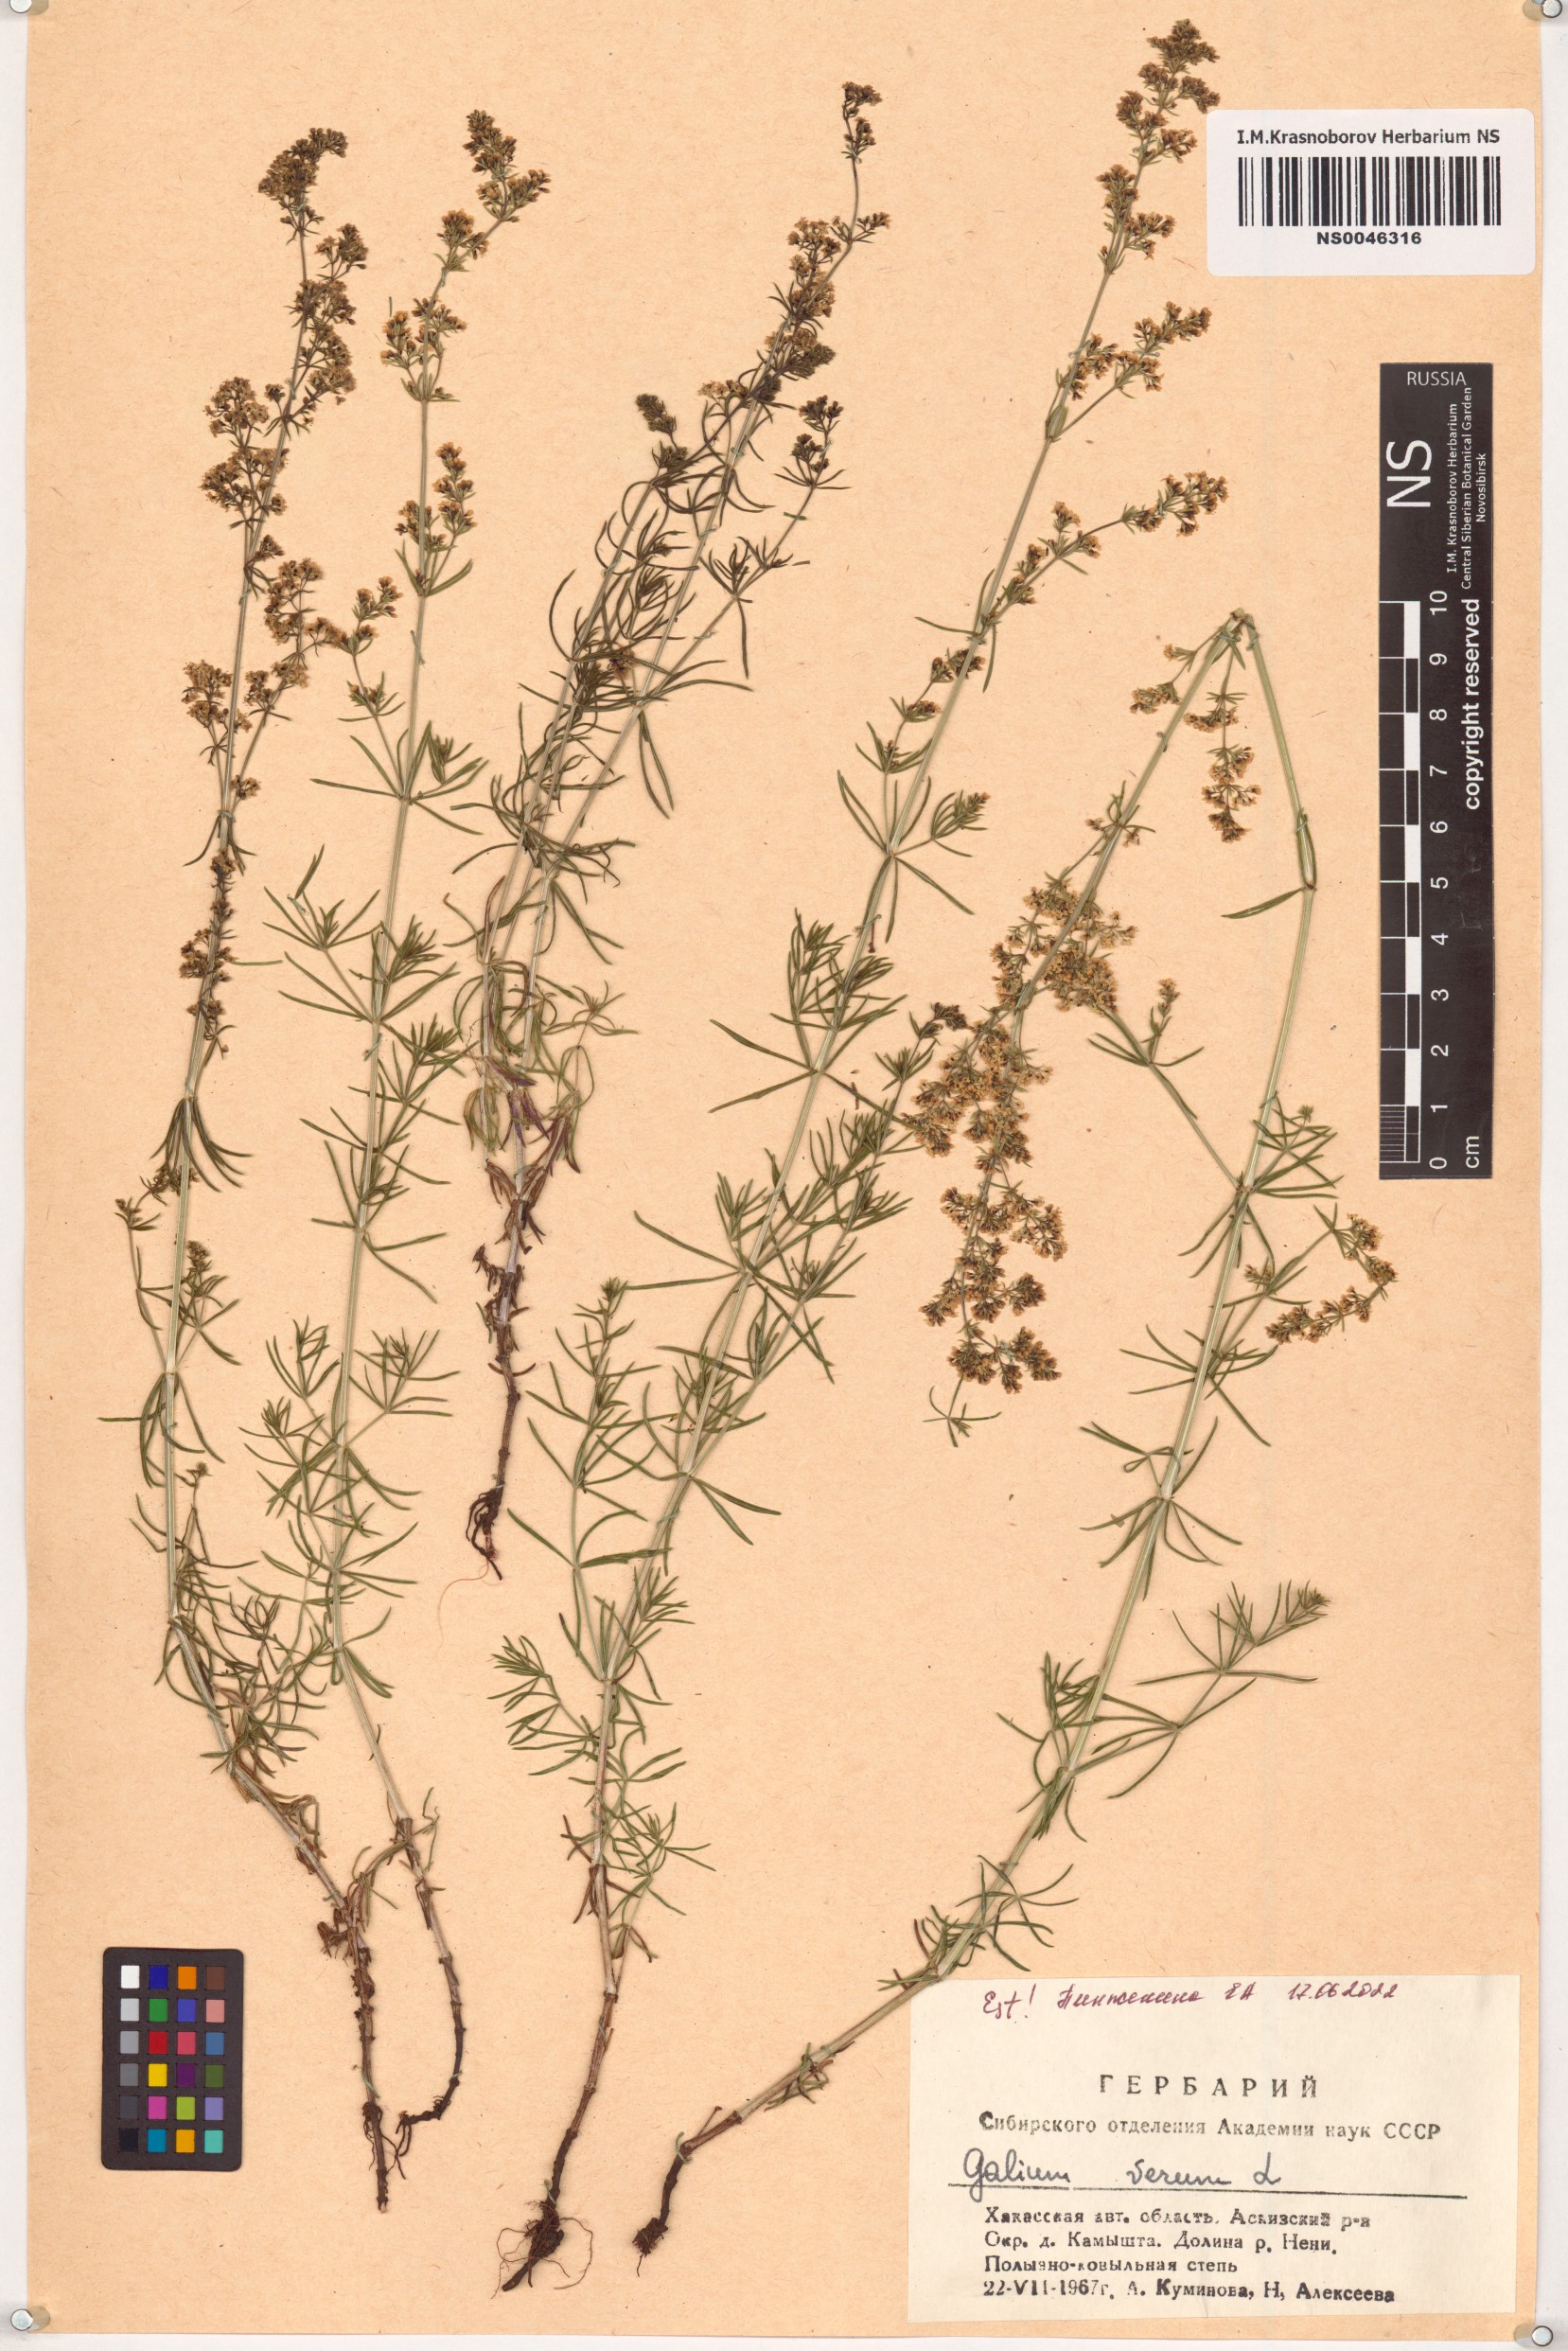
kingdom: Plantae
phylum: Tracheophyta
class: Magnoliopsida
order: Gentianales
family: Rubiaceae
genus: Galium
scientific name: Galium verum
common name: Lady's bedstraw
